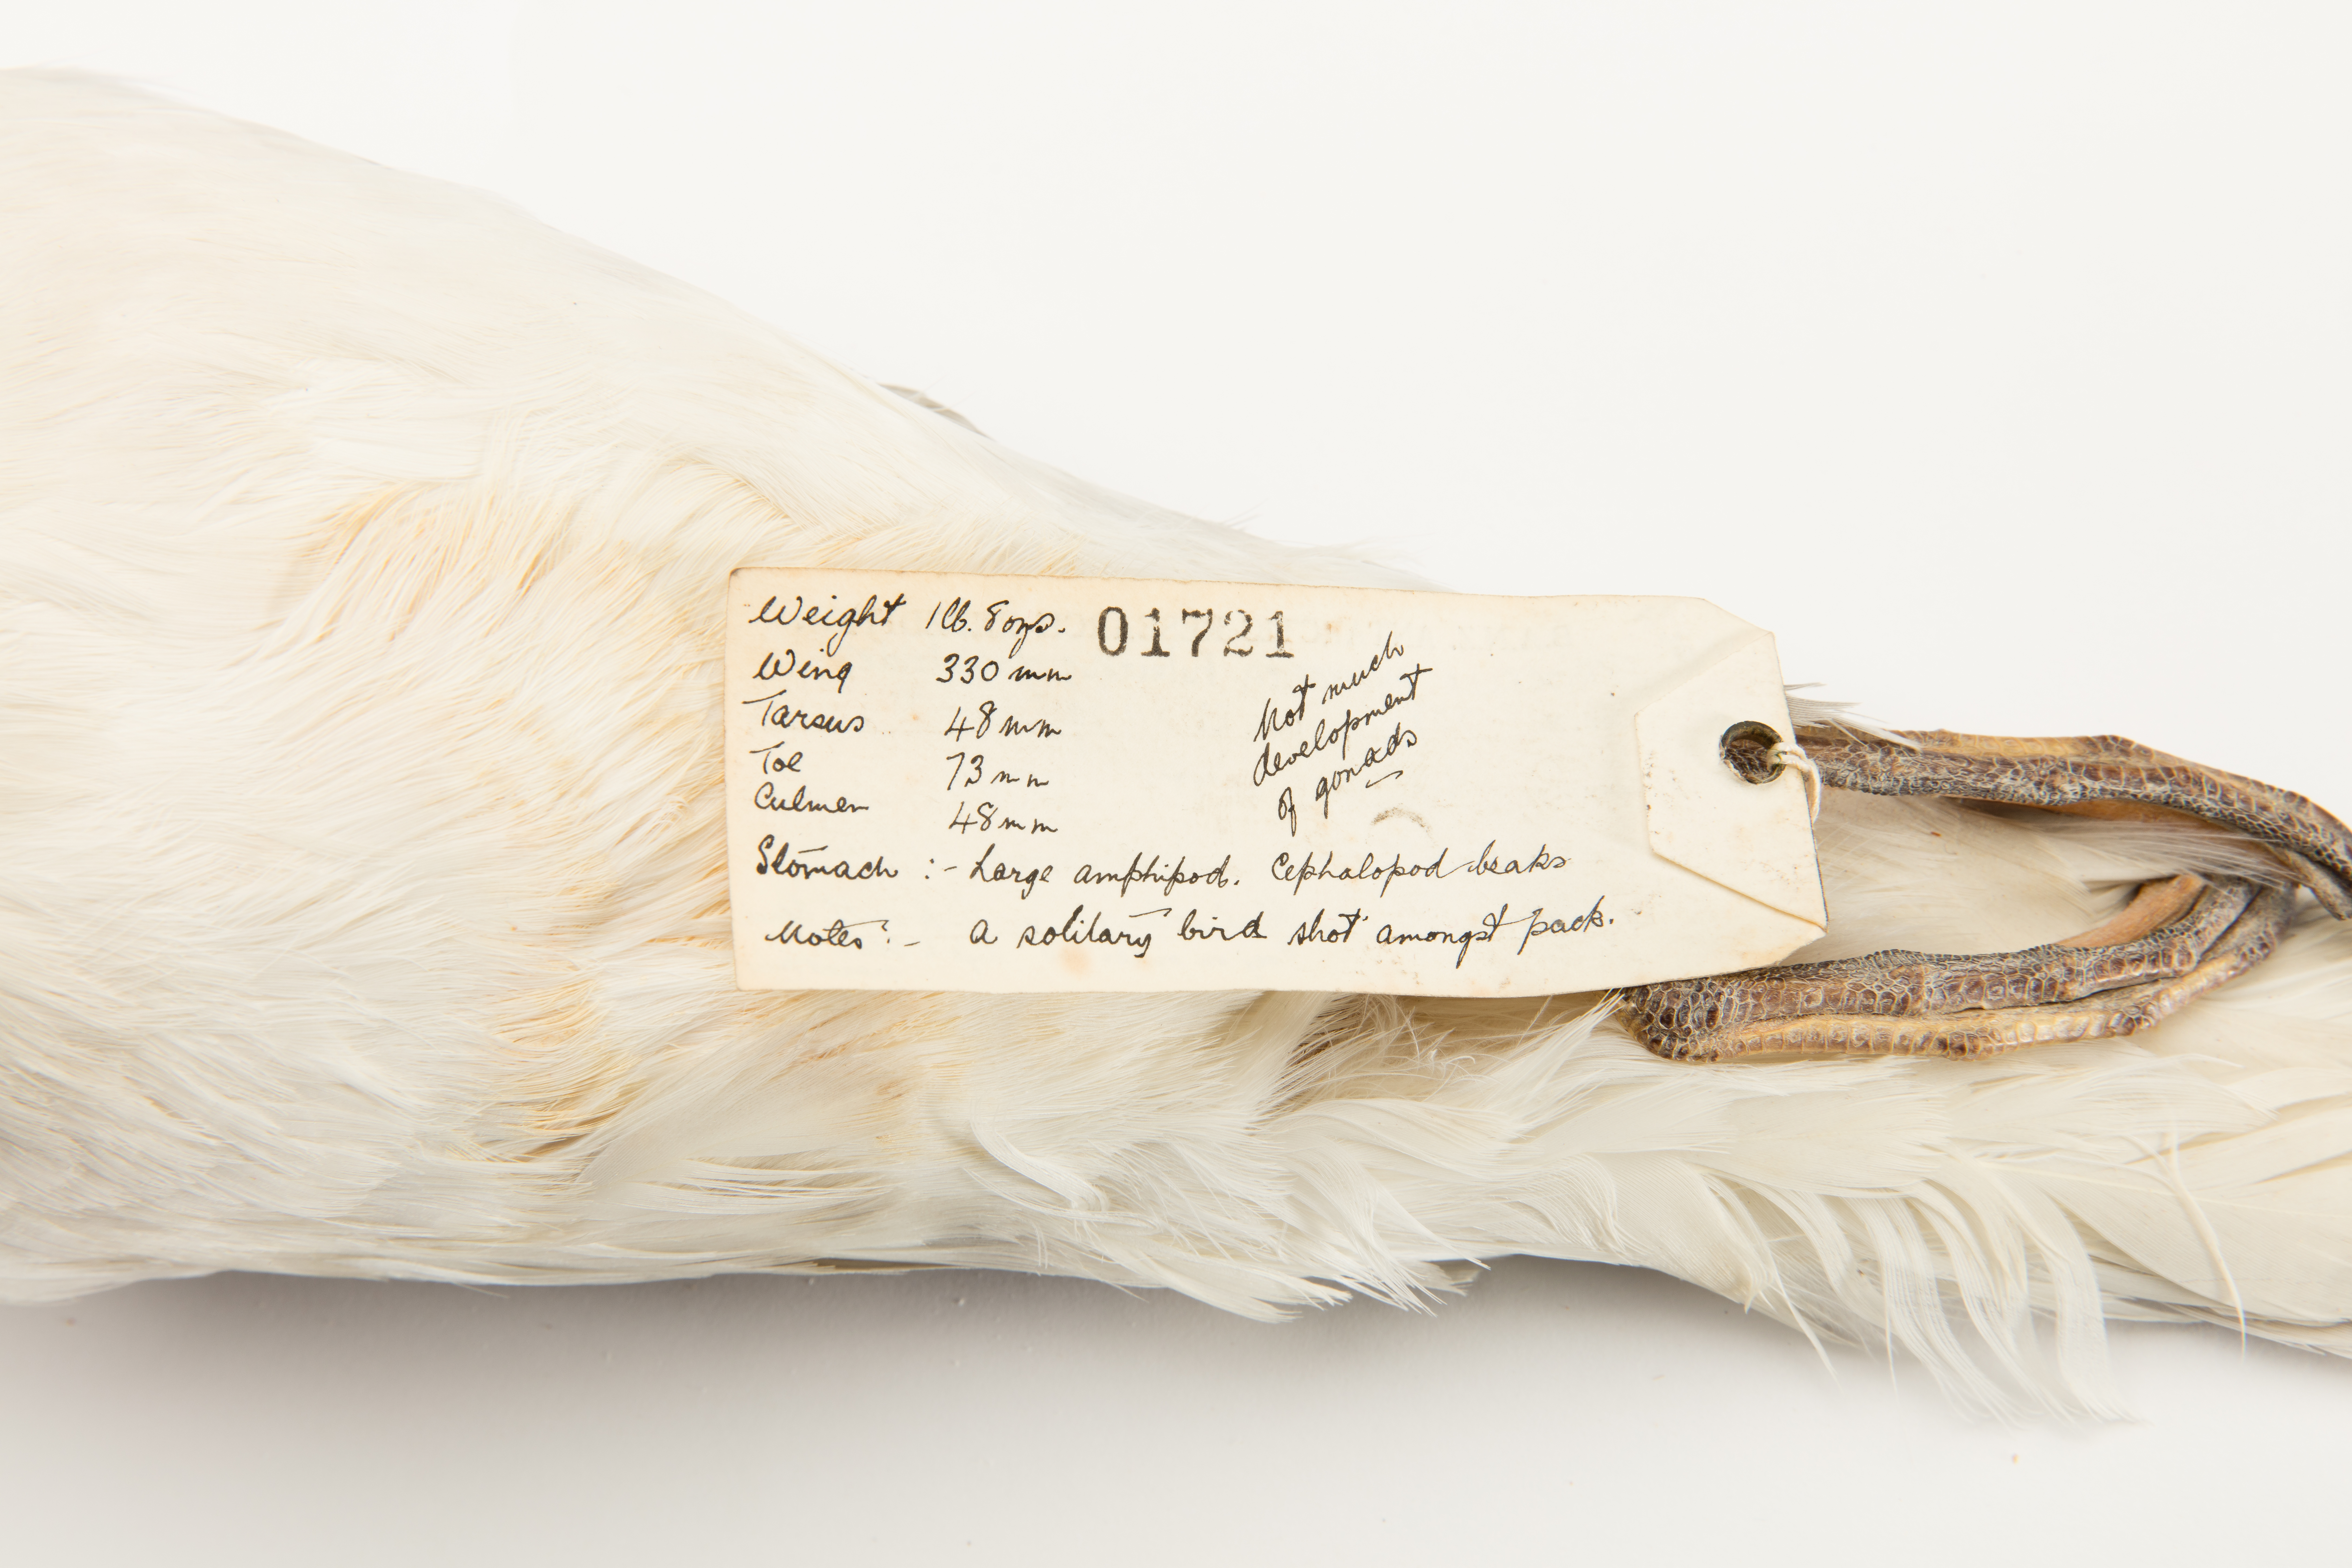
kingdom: Animalia
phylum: Chordata
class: Aves
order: Procellariiformes
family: Procellariidae
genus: Fulmarus
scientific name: Fulmarus glacialoides
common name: Southern fulmar
